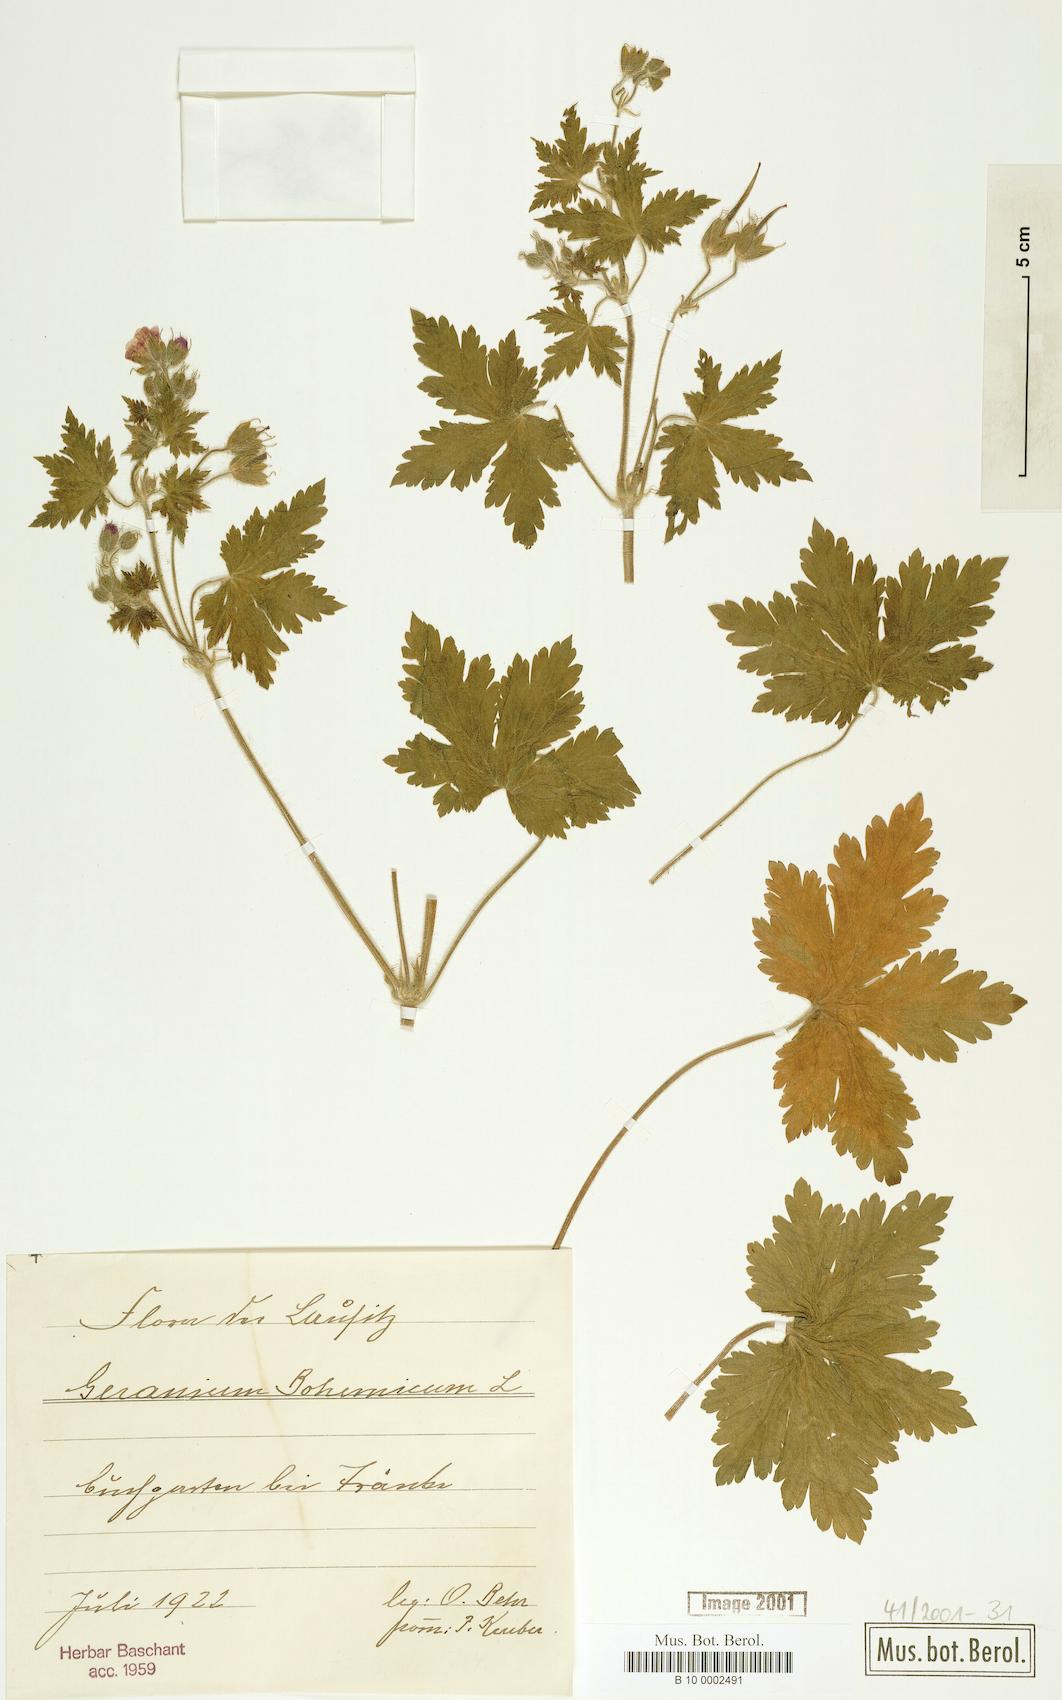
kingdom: Plantae
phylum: Tracheophyta
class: Magnoliopsida
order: Geraniales
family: Geraniaceae
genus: Geranium
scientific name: Geranium bohemicum
